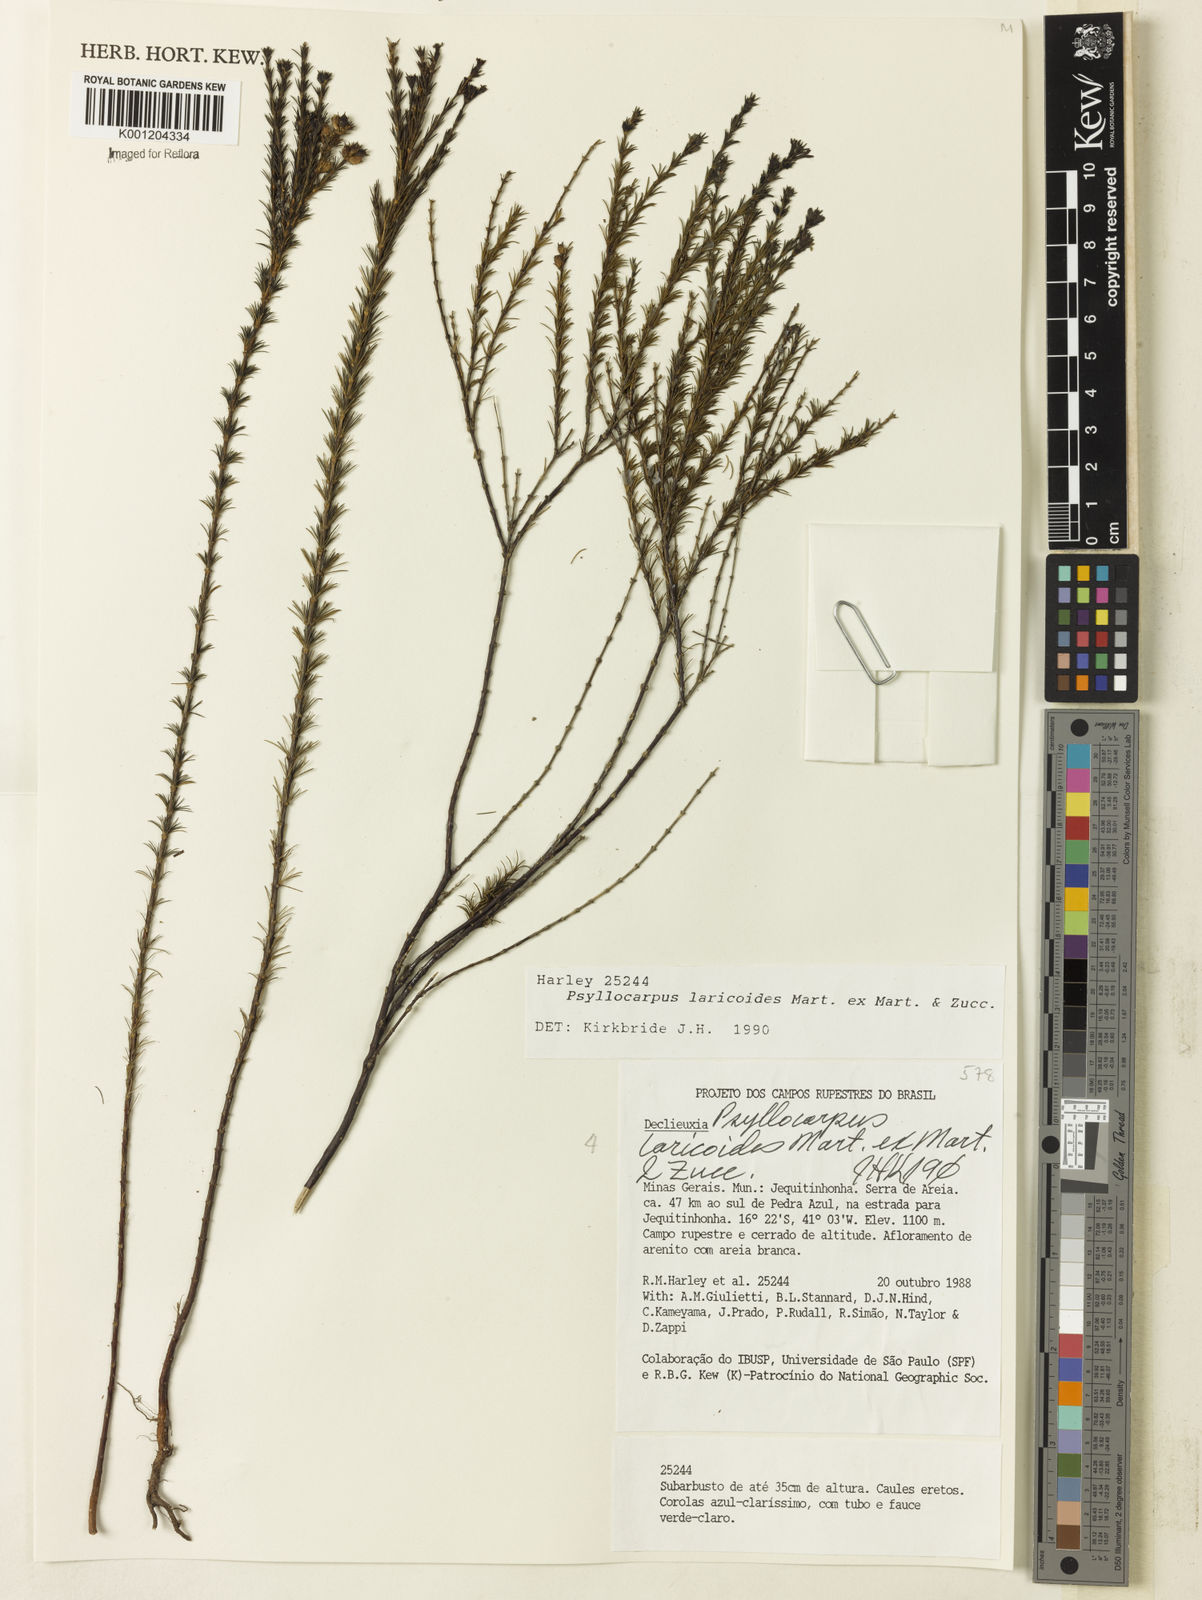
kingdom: Plantae
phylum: Tracheophyta
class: Magnoliopsida
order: Gentianales
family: Rubiaceae
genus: Psyllocarpus
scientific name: Psyllocarpus laricoides
